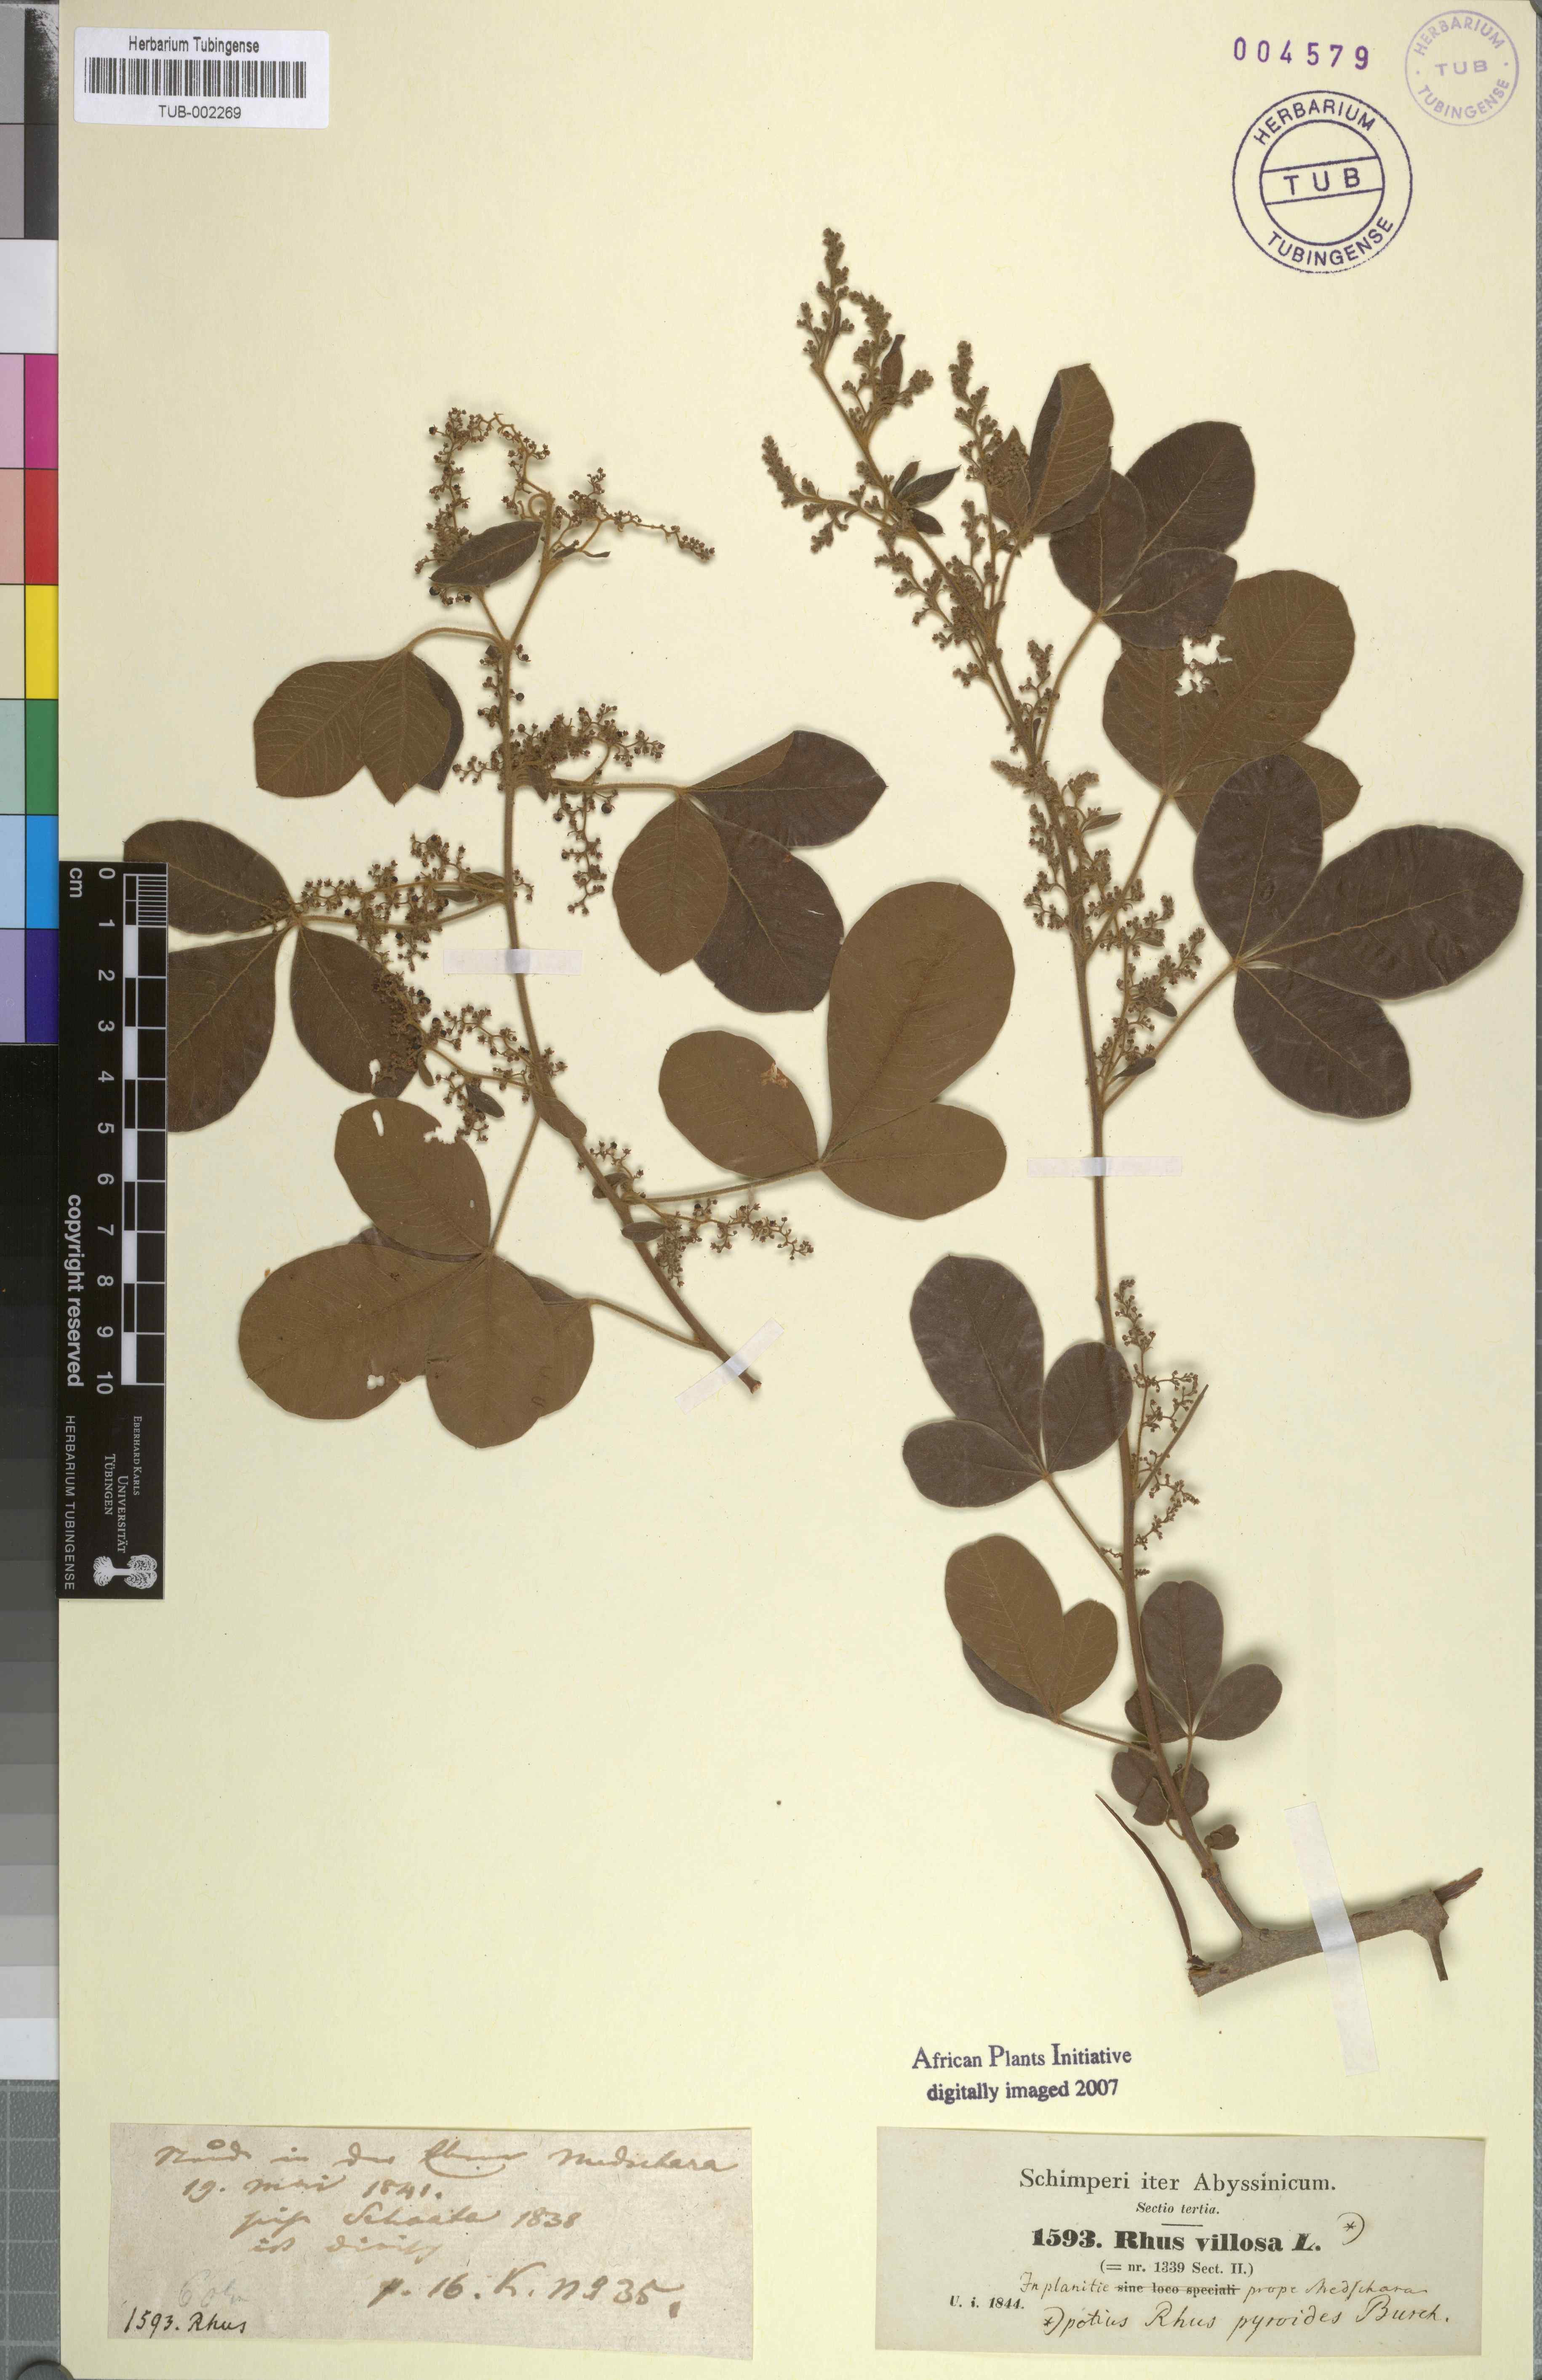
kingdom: Plantae
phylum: Tracheophyta
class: Magnoliopsida
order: Sapindales
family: Anacardiaceae
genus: Searsia
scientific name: Searsia laevigata
